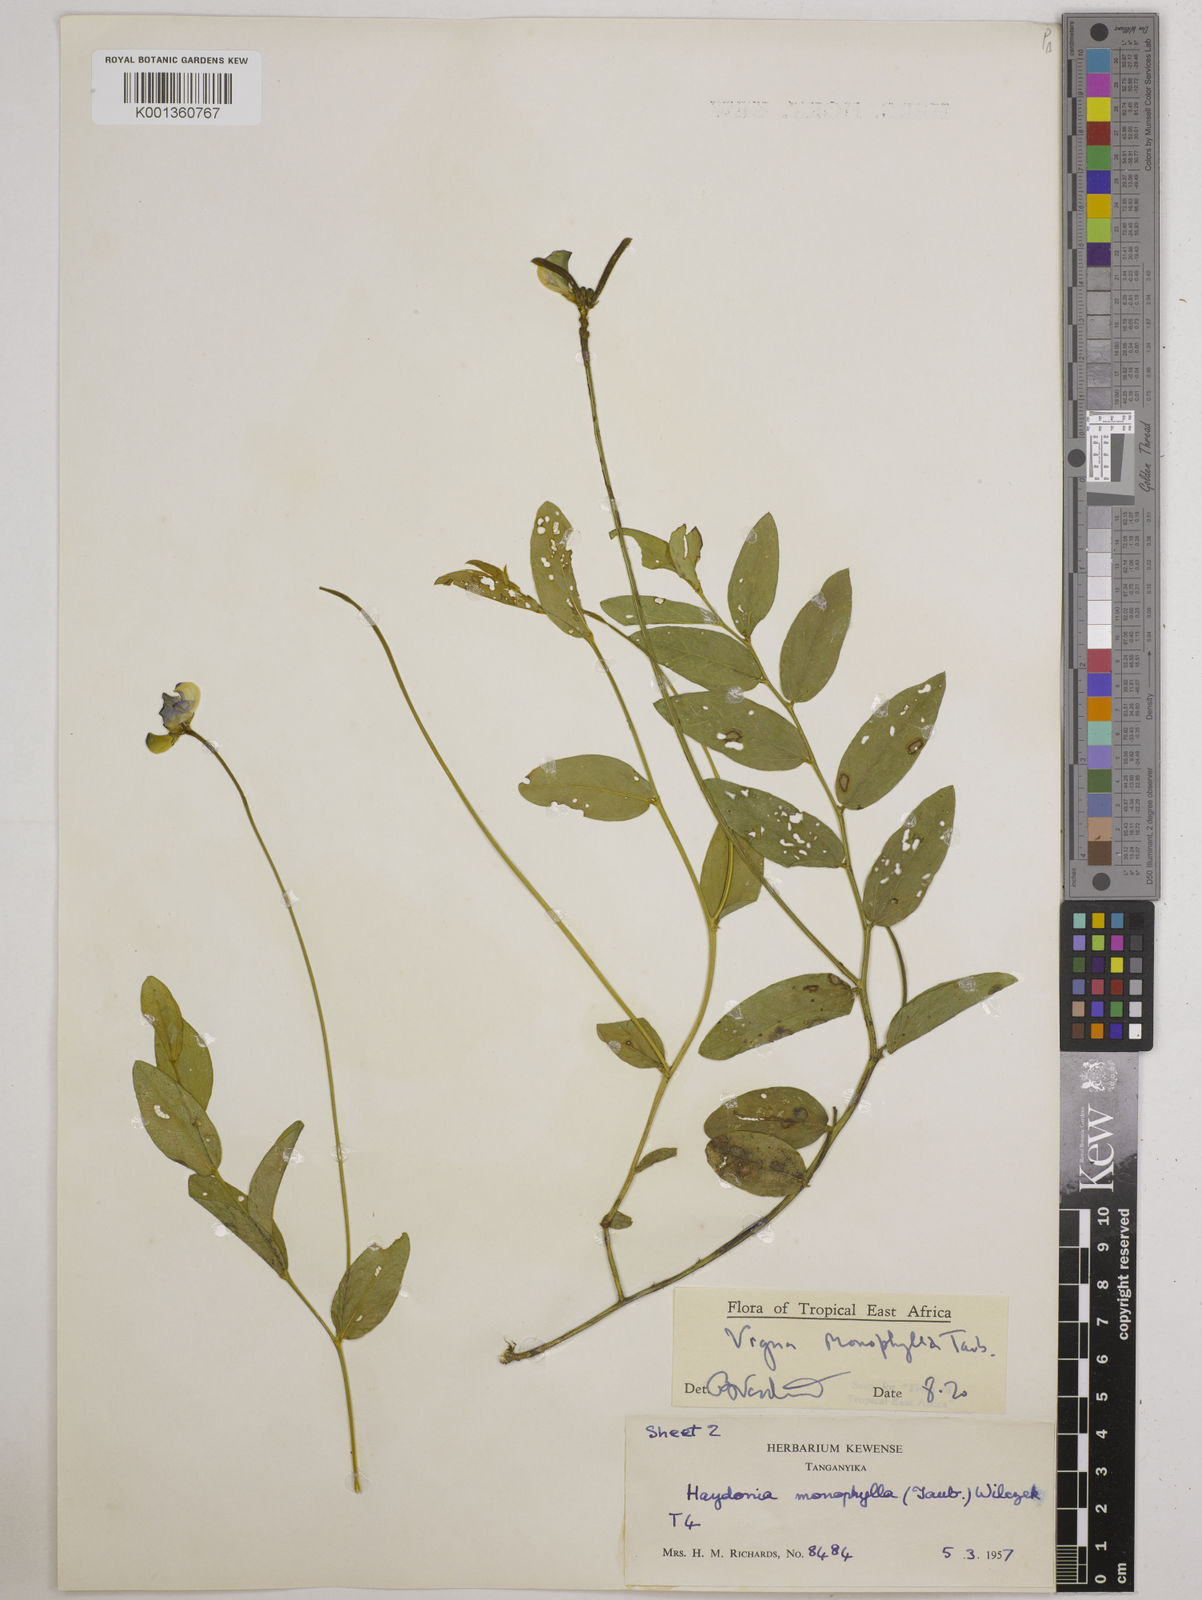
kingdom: Plantae
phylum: Tracheophyta
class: Magnoliopsida
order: Fabales
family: Fabaceae
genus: Vigna
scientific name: Vigna monophylla
